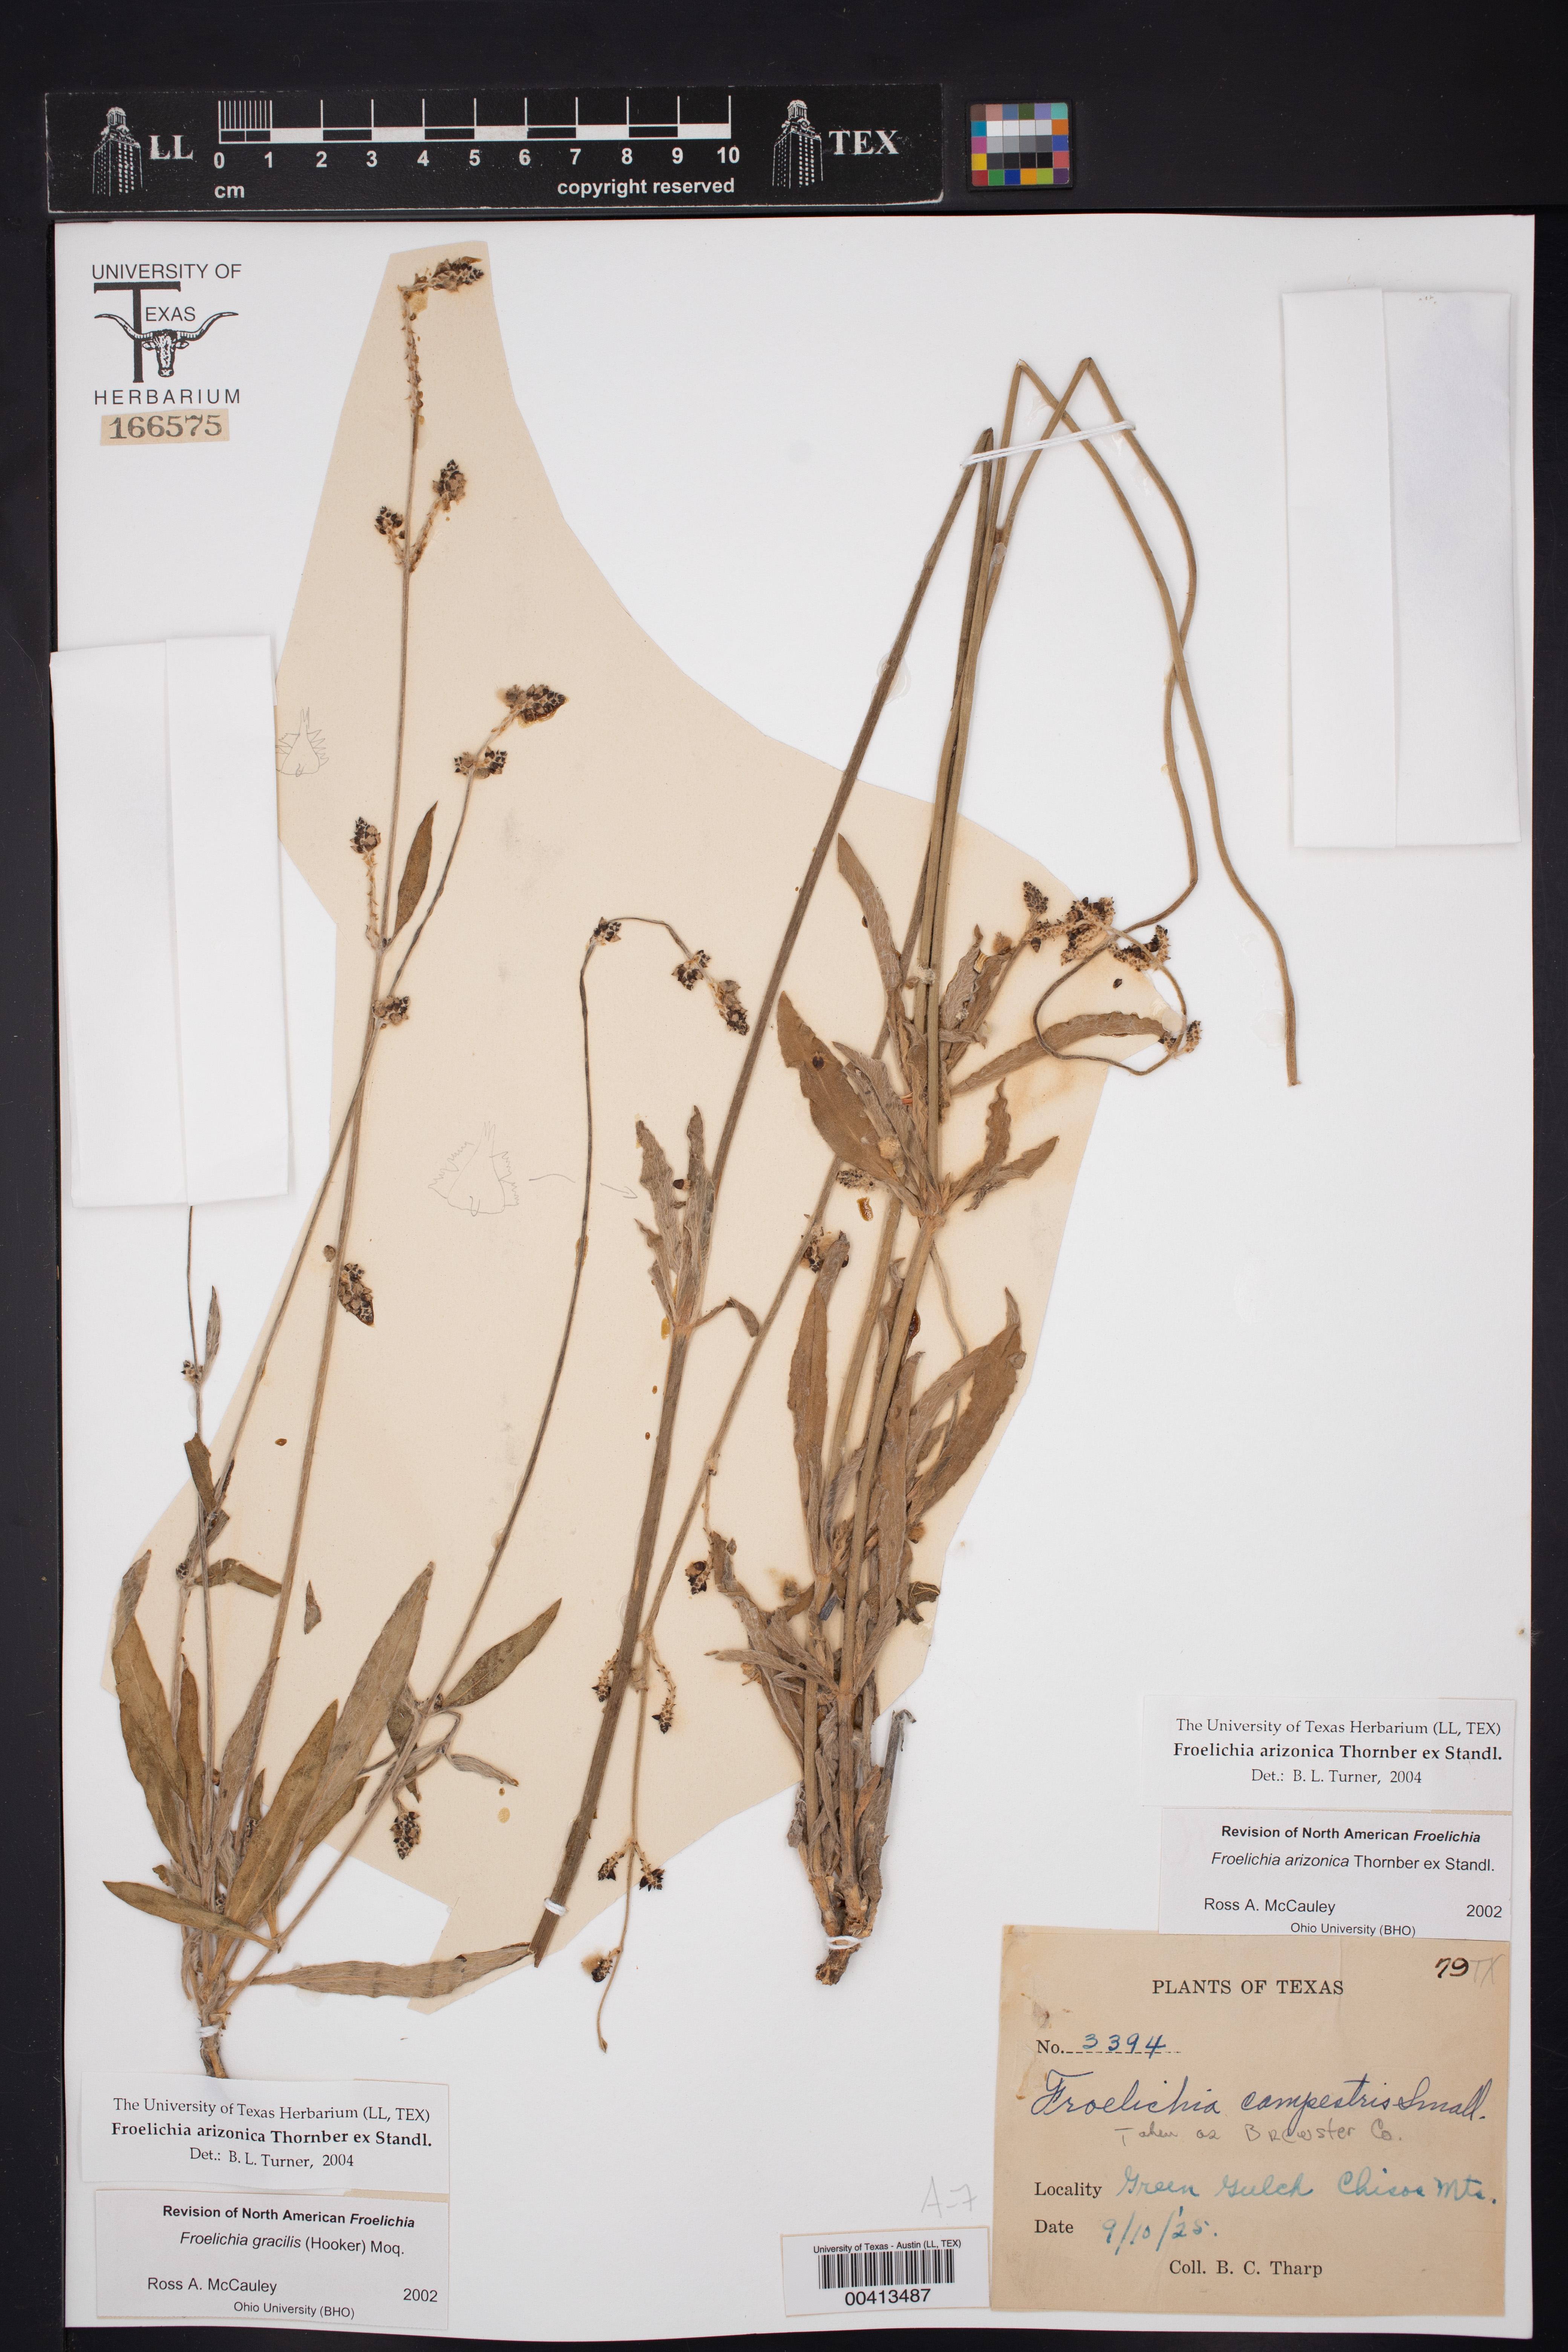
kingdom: Plantae
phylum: Tracheophyta
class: Magnoliopsida
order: Caryophyllales
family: Amaranthaceae
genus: Froelichia
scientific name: Froelichia arizonica
